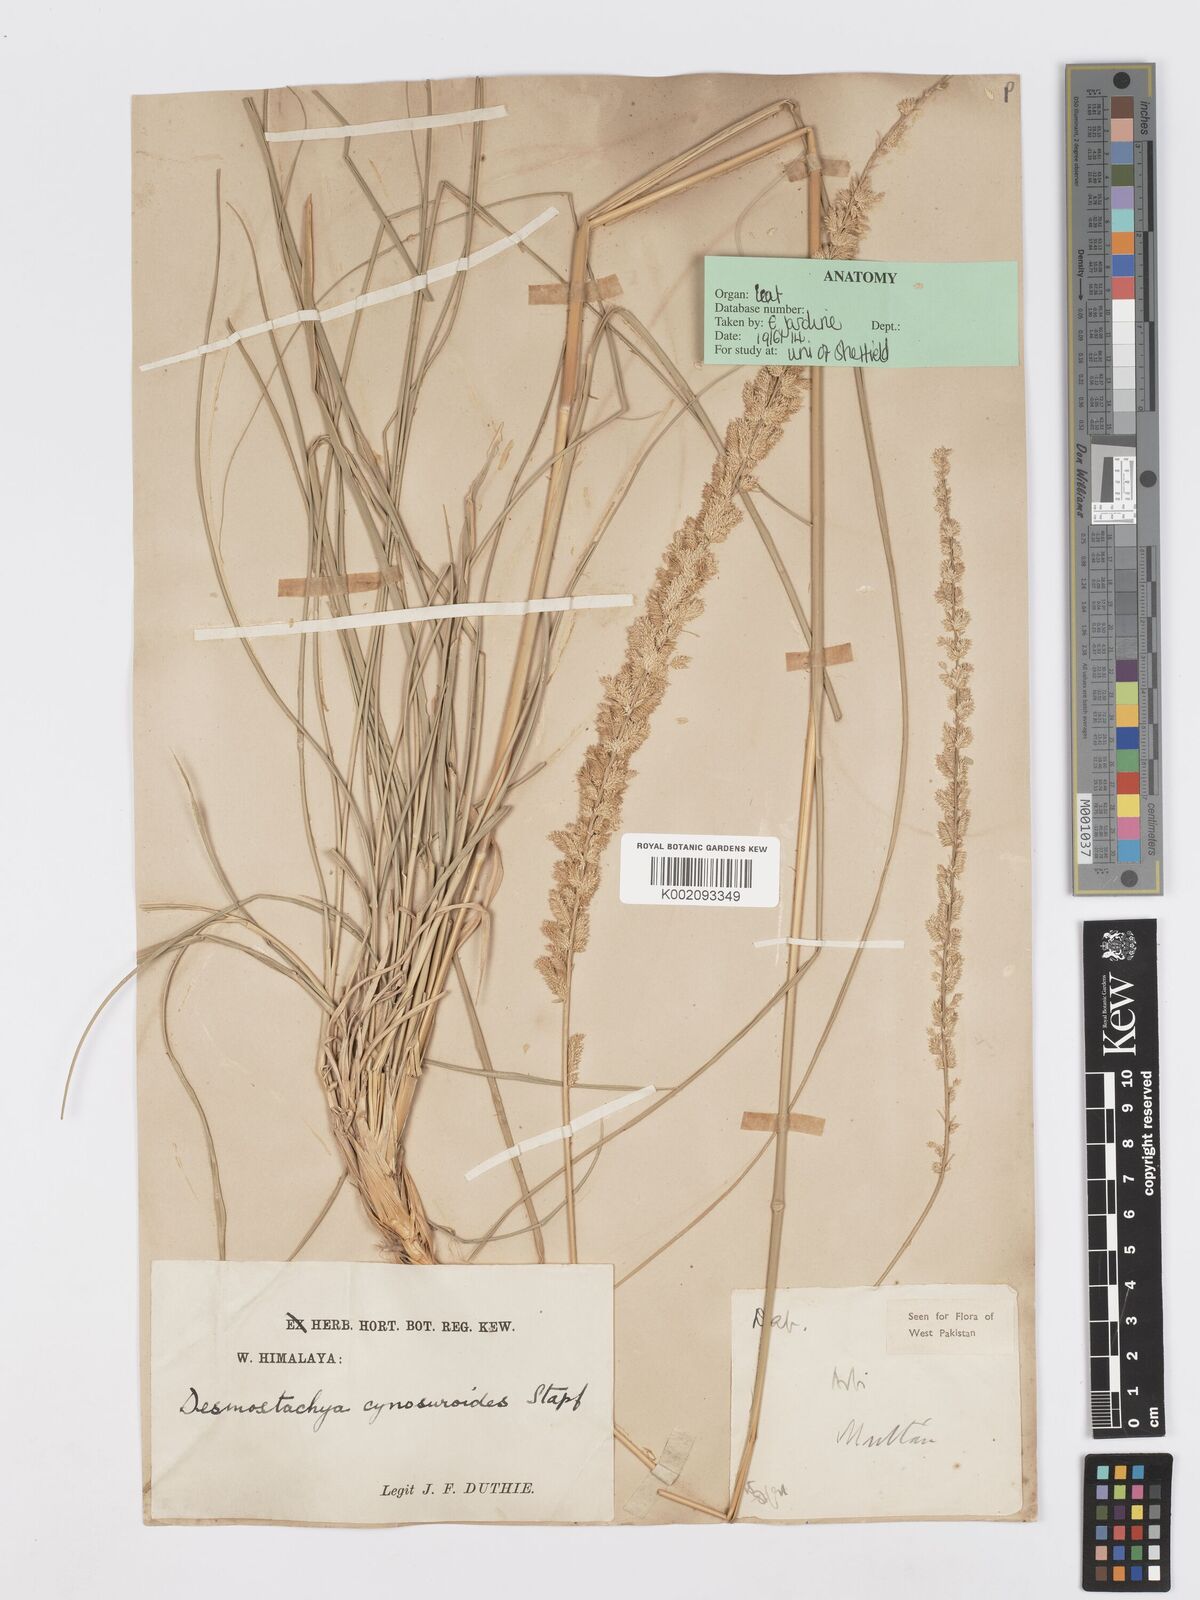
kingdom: Plantae
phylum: Tracheophyta
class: Liliopsida
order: Poales
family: Poaceae
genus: Desmostachya
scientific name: Desmostachya bipinnata
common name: Crowfoot grass
